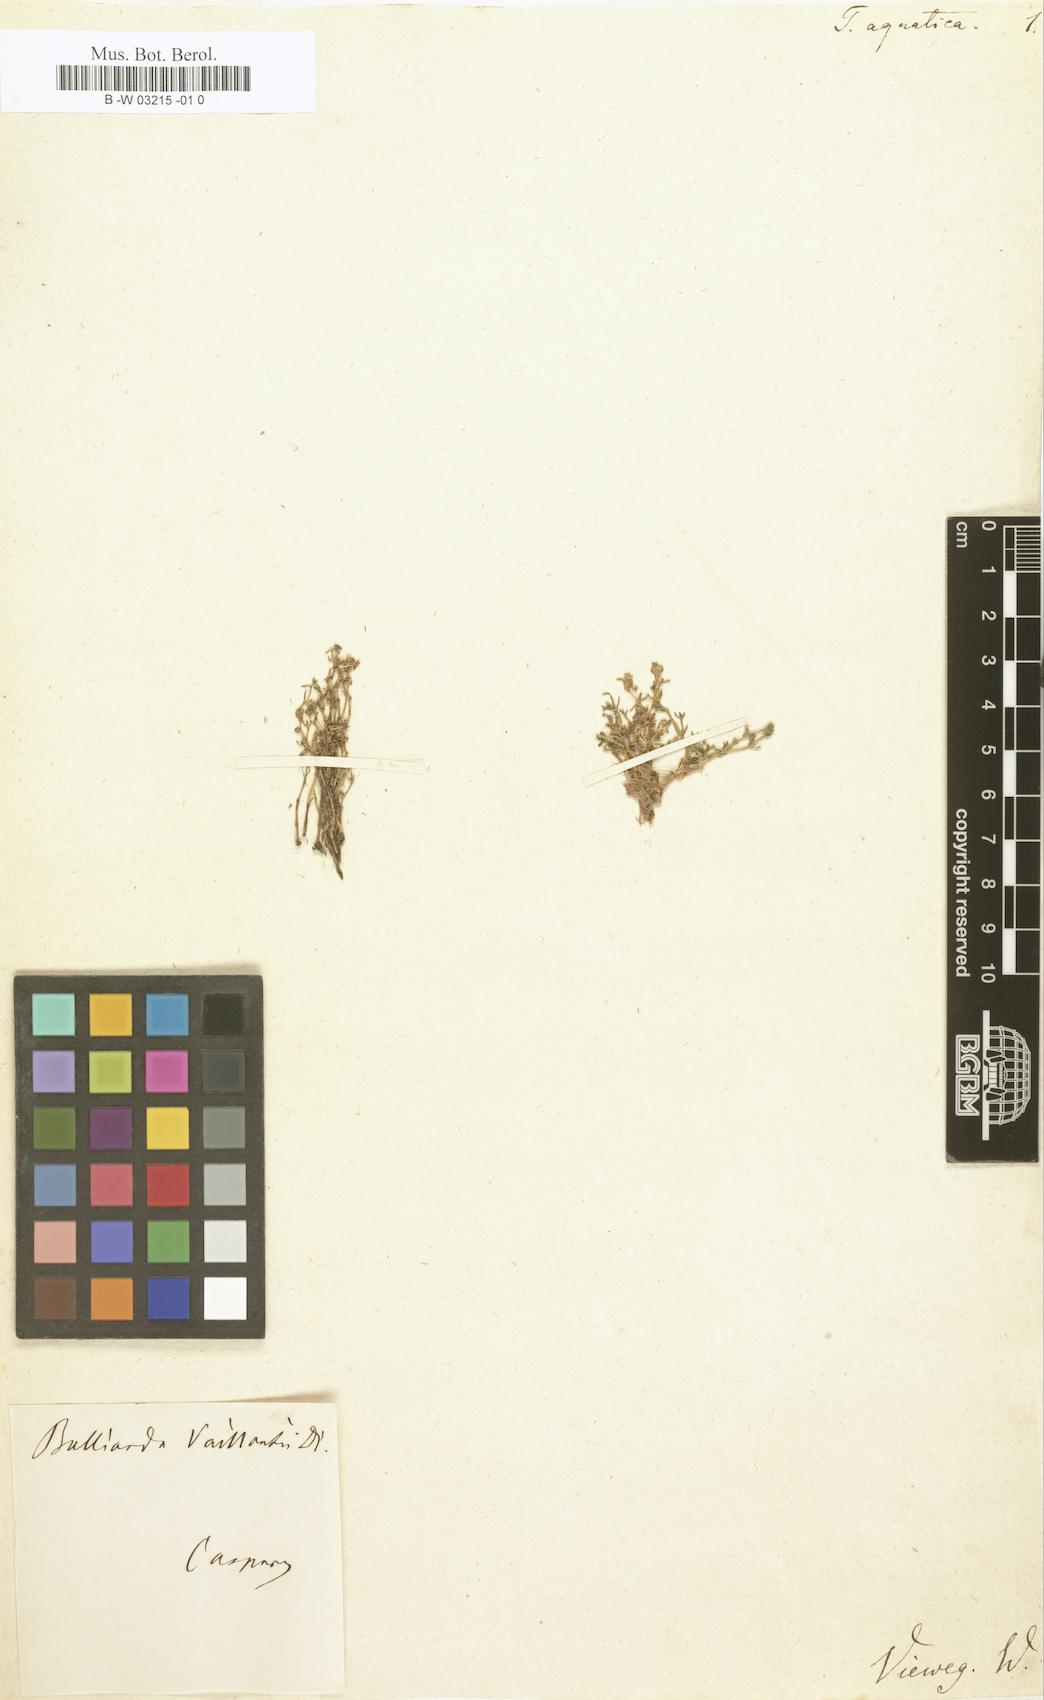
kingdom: Plantae
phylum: Tracheophyta
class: Magnoliopsida
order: Saxifragales
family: Crassulaceae
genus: Crassula
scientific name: Crassula aquatica
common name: Pigmyweed
